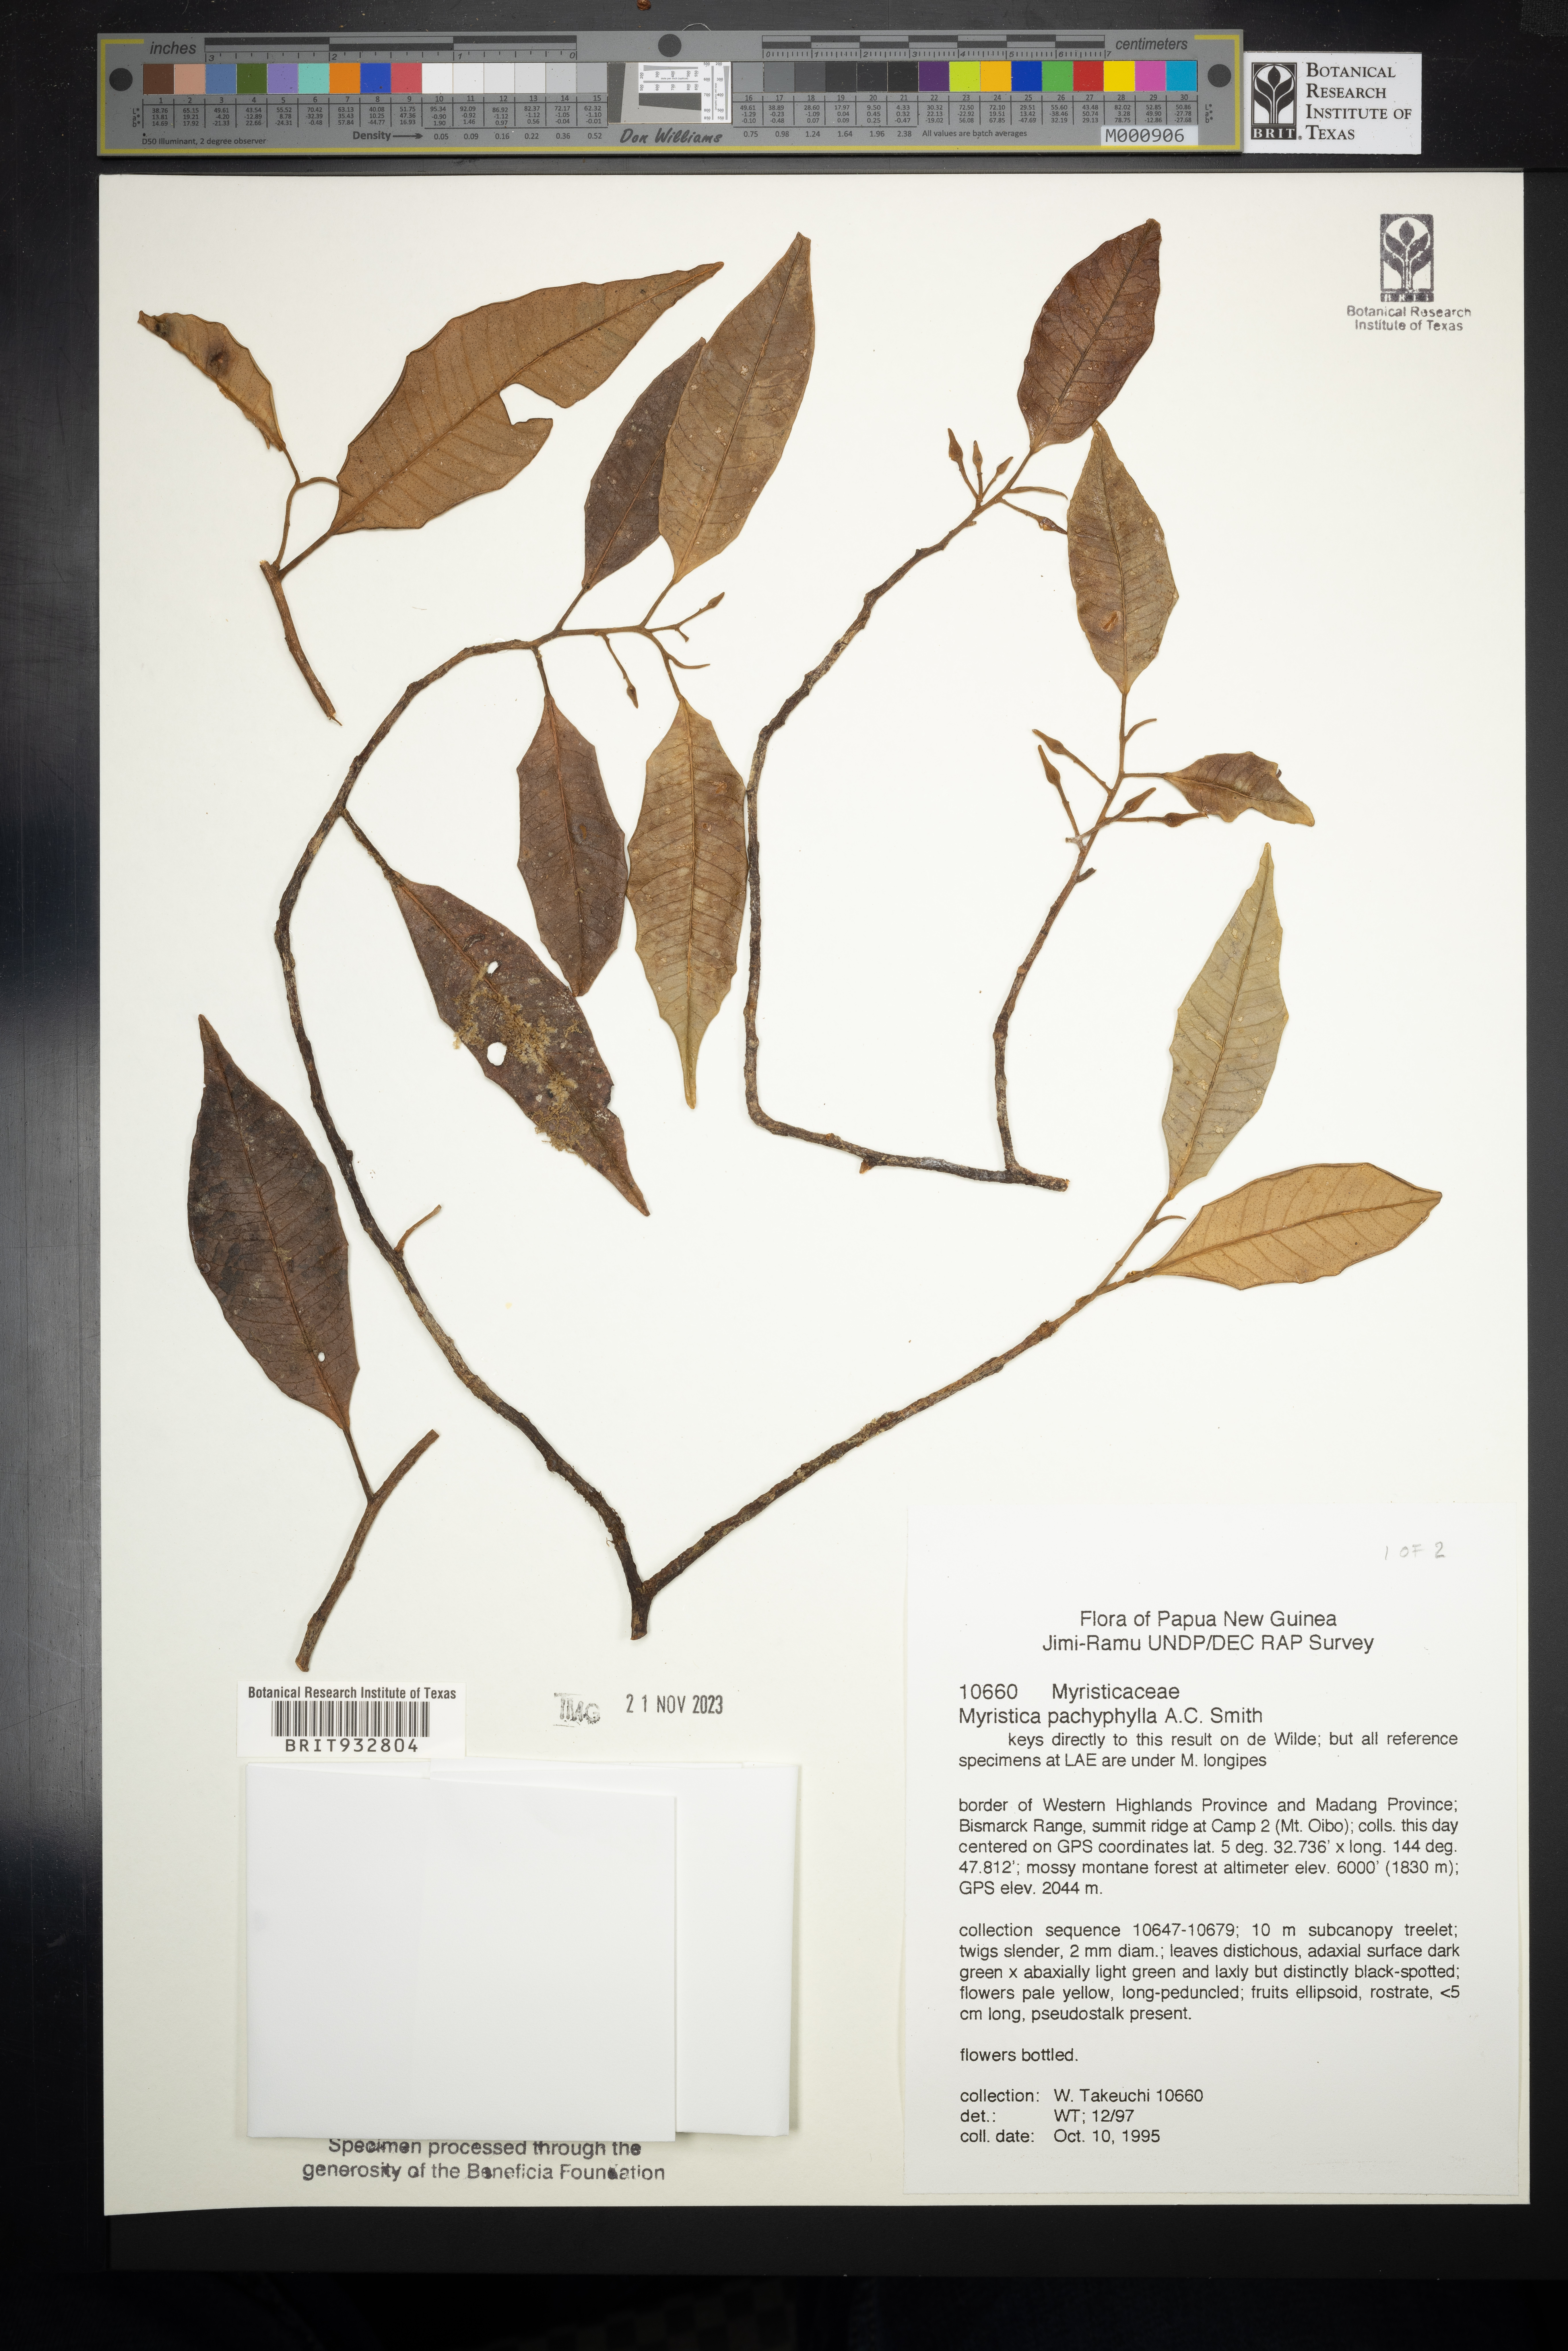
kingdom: Plantae
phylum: Tracheophyta
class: Magnoliopsida
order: Magnoliales
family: Myristicaceae
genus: Myristica
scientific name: Myristica
